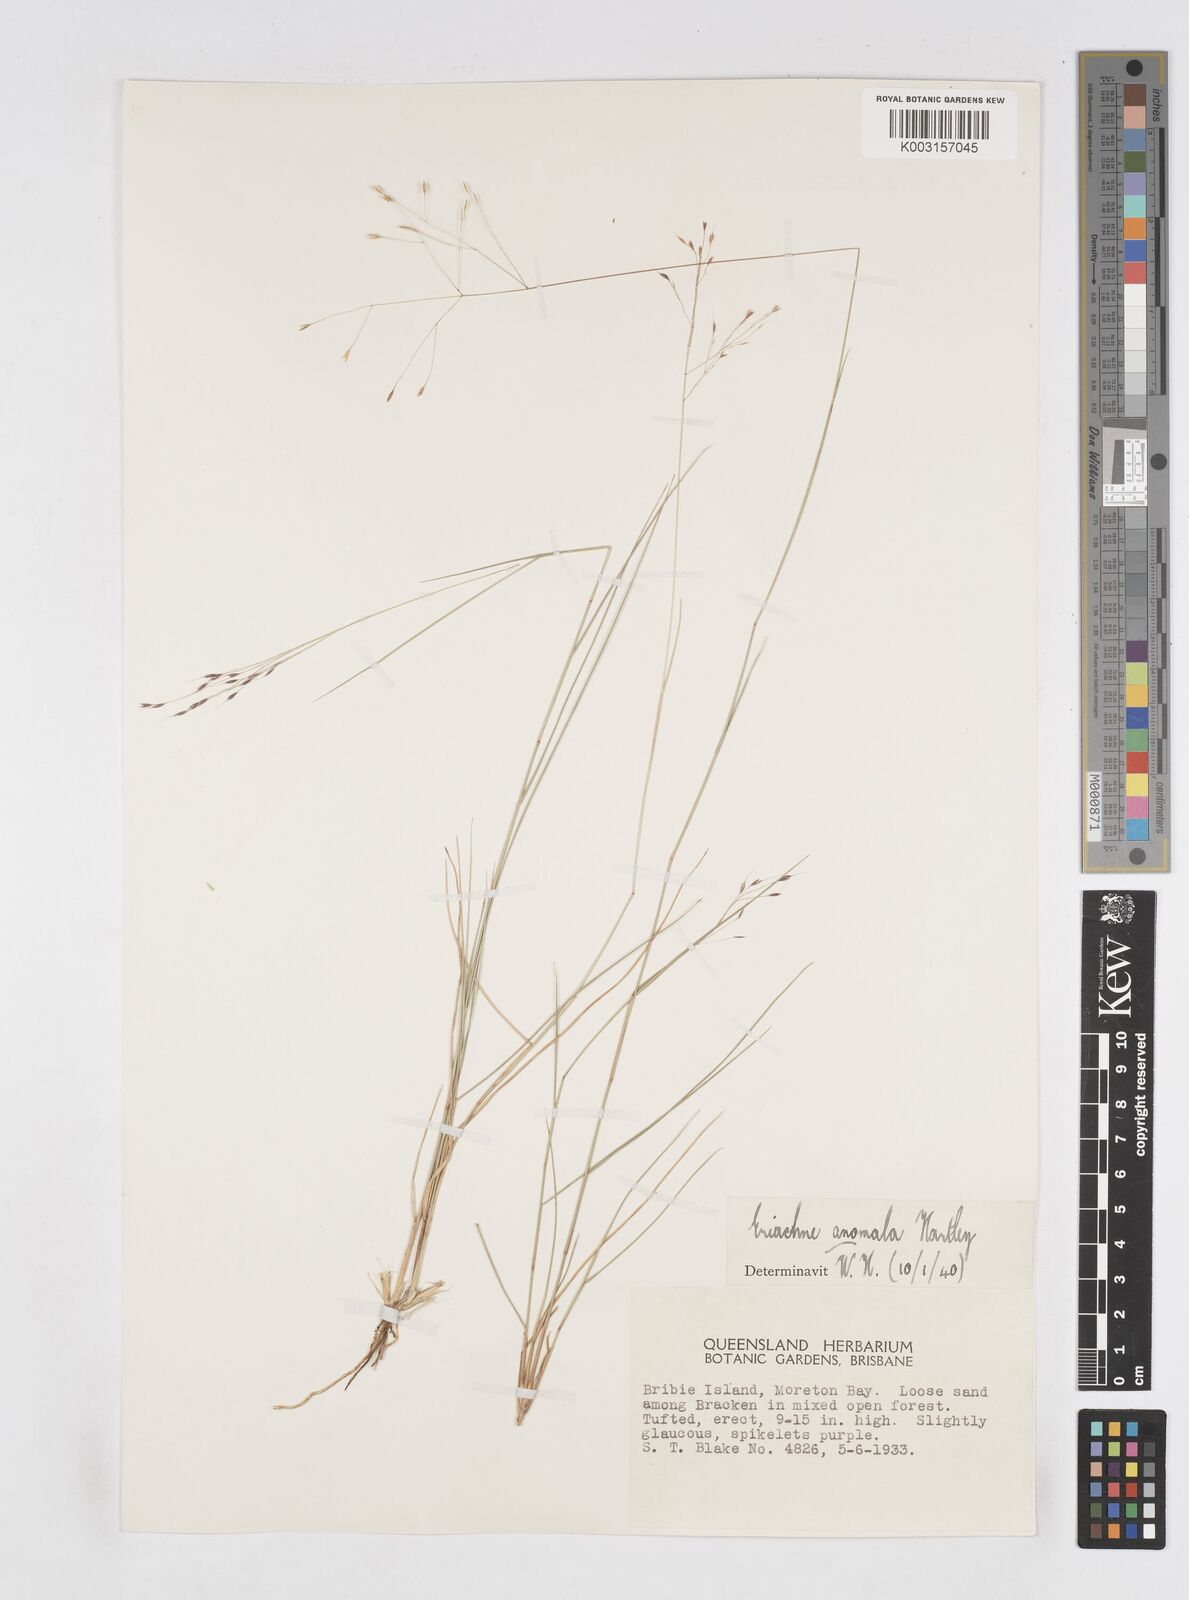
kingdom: Plantae
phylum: Tracheophyta
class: Liliopsida
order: Poales
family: Poaceae
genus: Eriachne
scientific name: Eriachne pallescens
